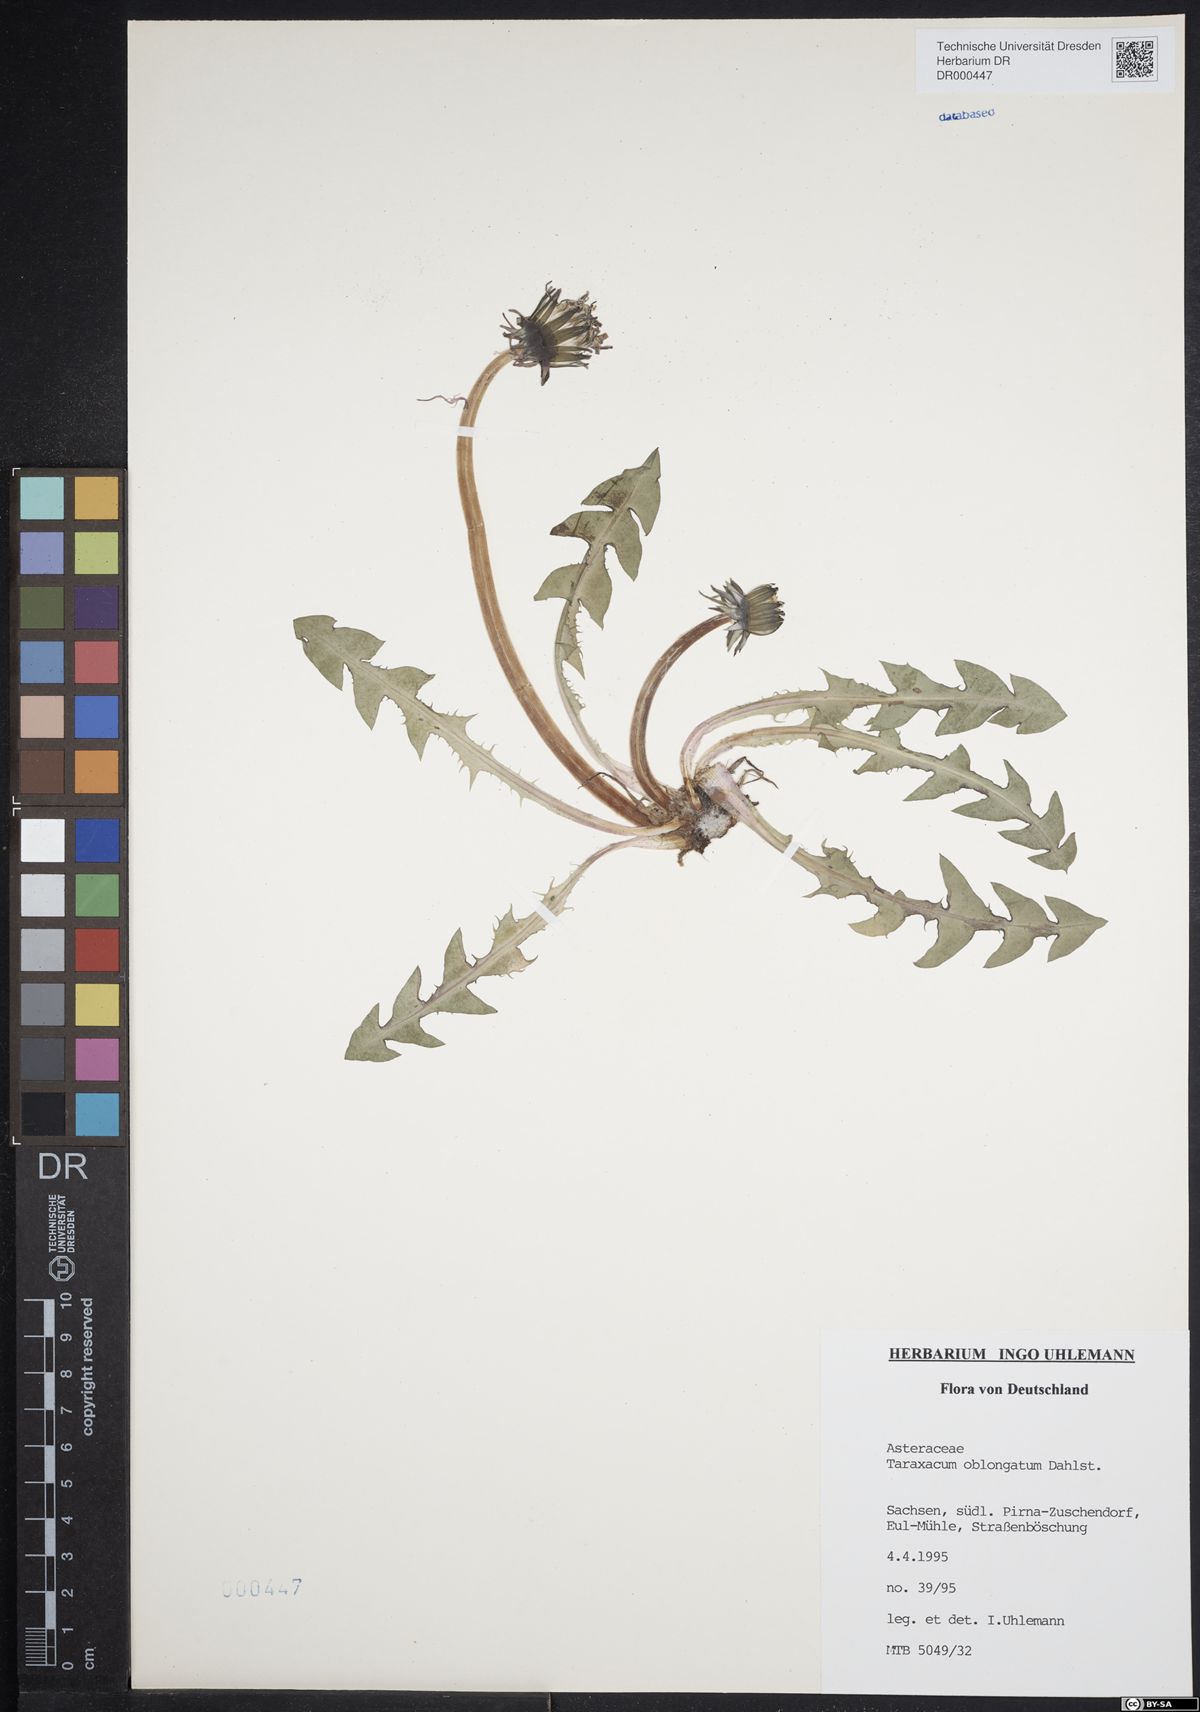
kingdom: Plantae
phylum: Tracheophyta
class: Magnoliopsida
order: Asterales
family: Asteraceae
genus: Taraxacum
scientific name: Taraxacum oblongatum
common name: Oblong-leaved dandelion
